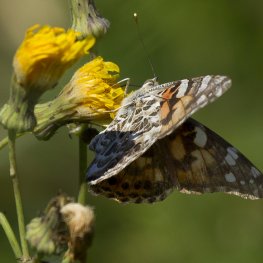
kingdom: Animalia
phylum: Arthropoda
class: Insecta
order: Lepidoptera
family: Nymphalidae
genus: Vanessa
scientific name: Vanessa cardui
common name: Painted Lady
